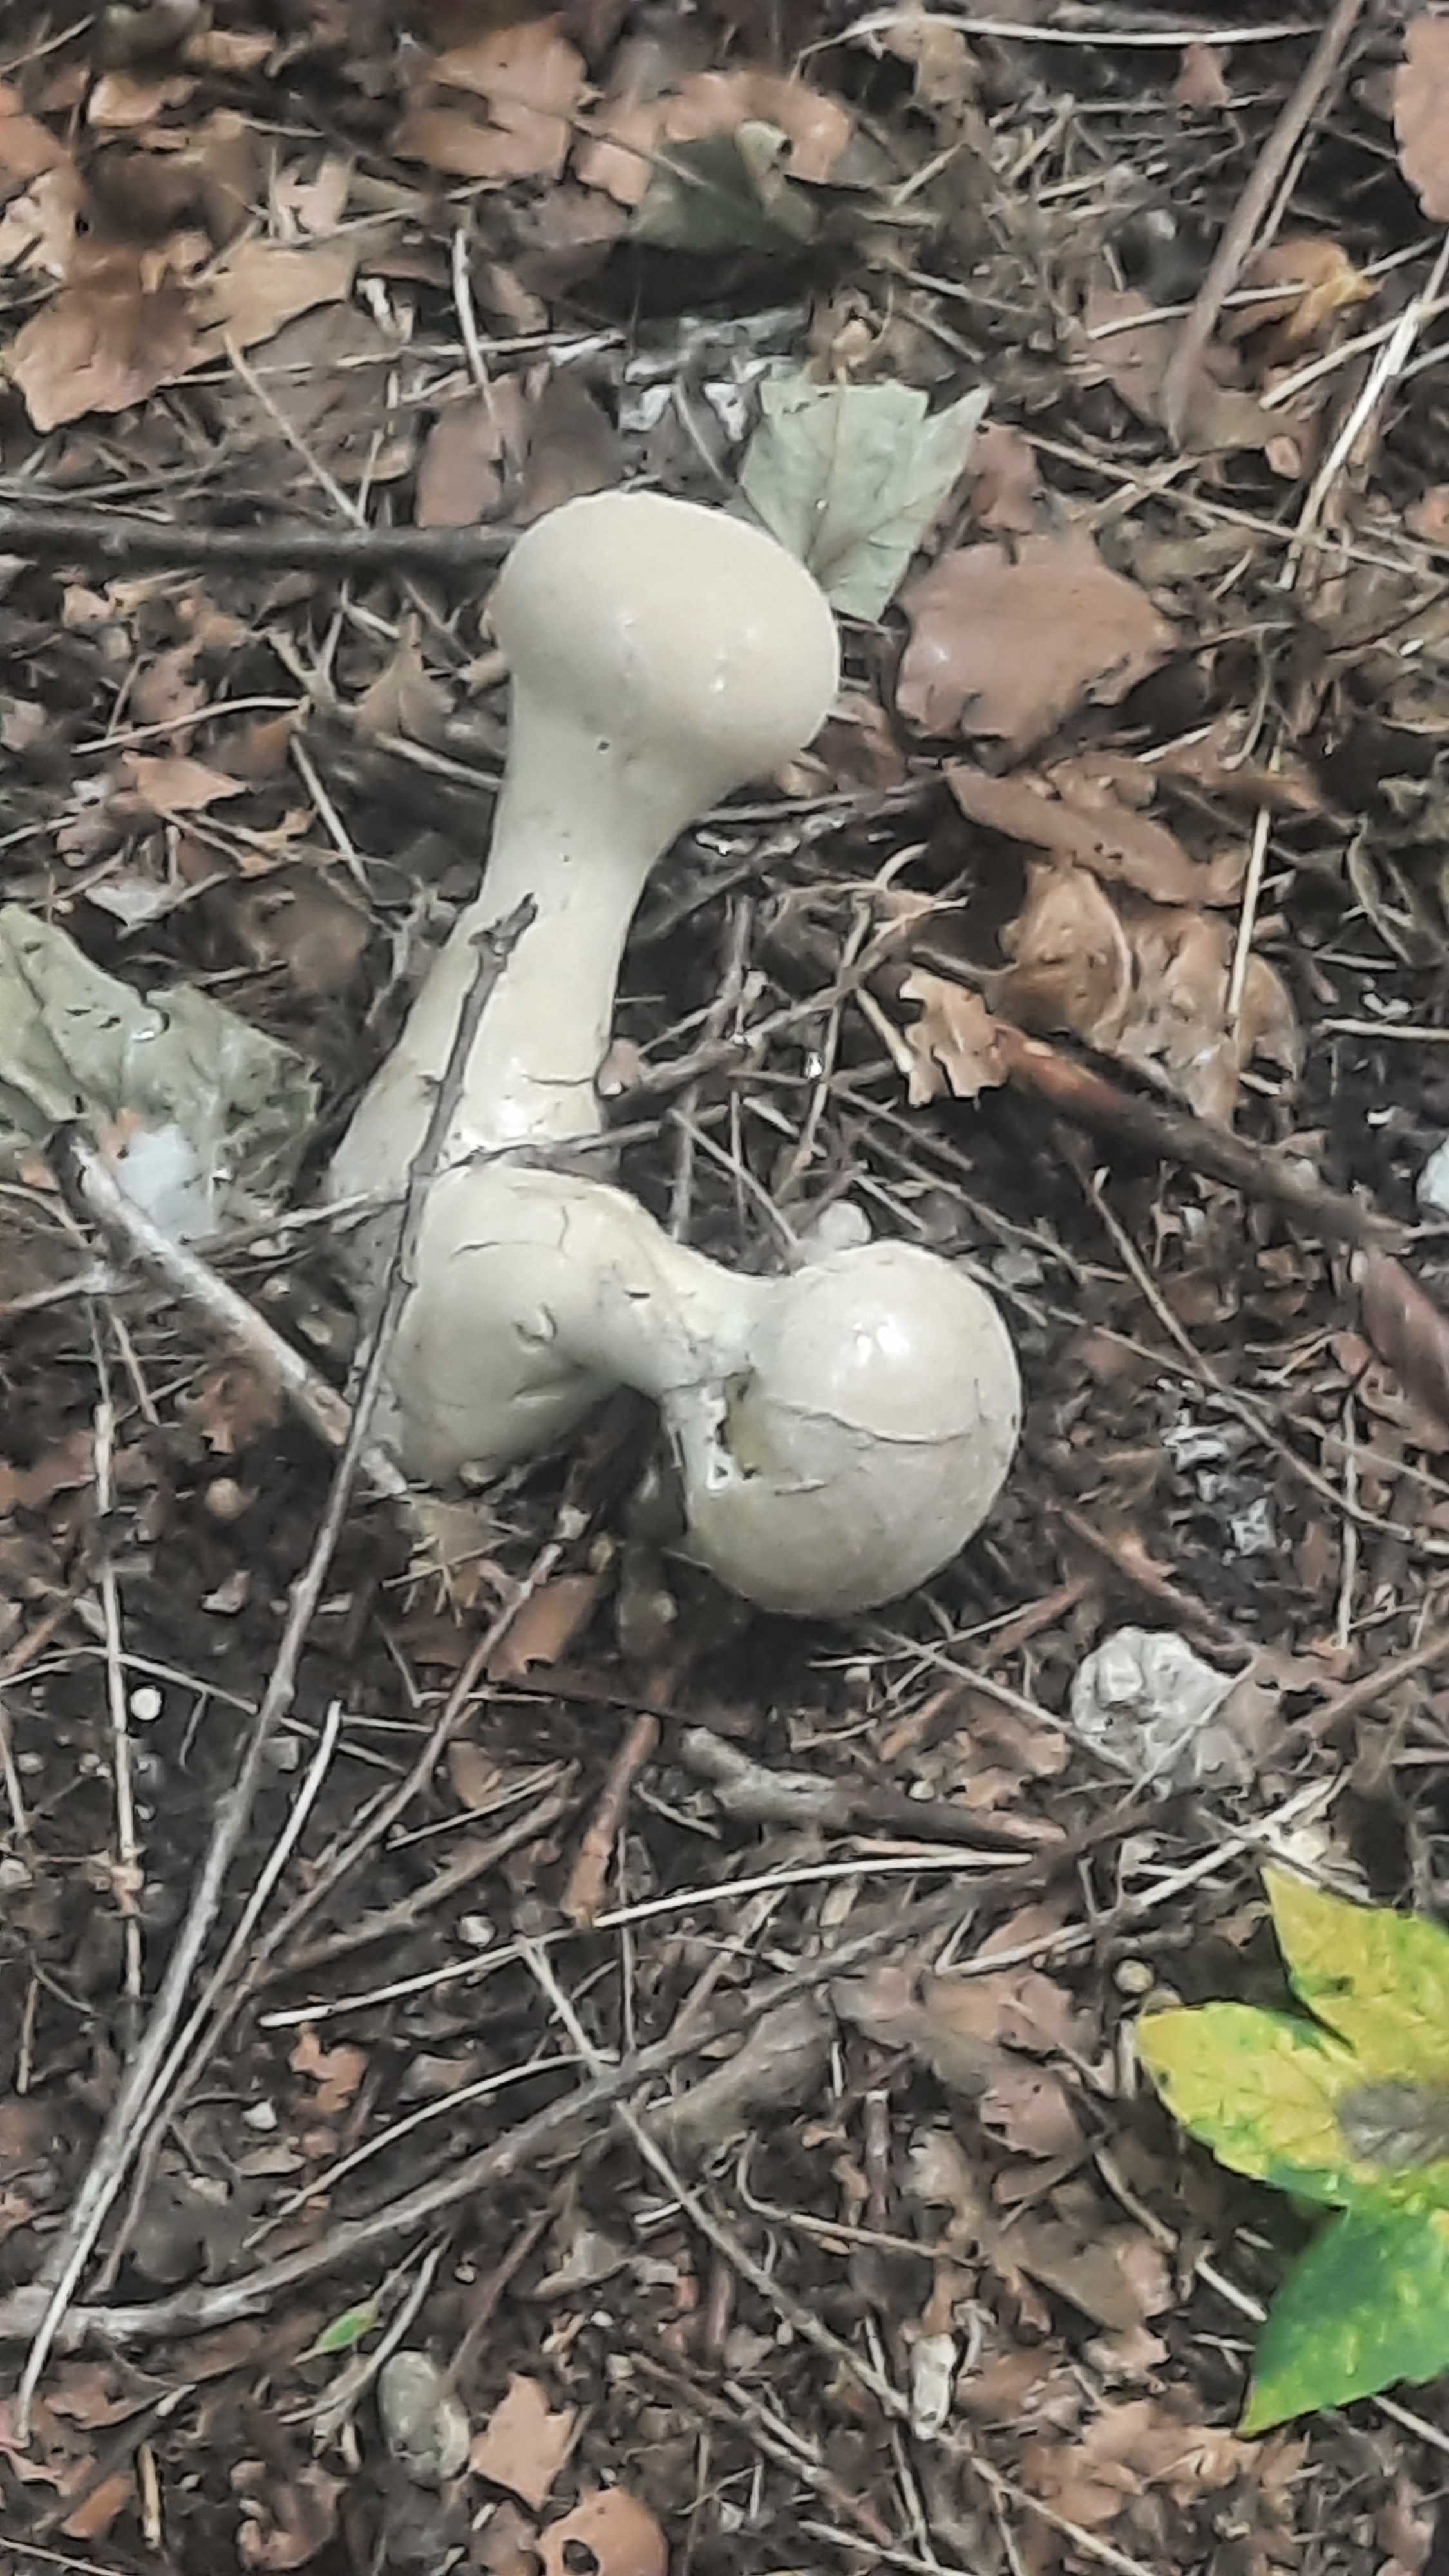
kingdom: Fungi
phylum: Basidiomycota
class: Agaricomycetes
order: Agaricales
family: Lycoperdaceae
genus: Lycoperdon
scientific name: Lycoperdon excipuliforme
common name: højstokket støvbold
